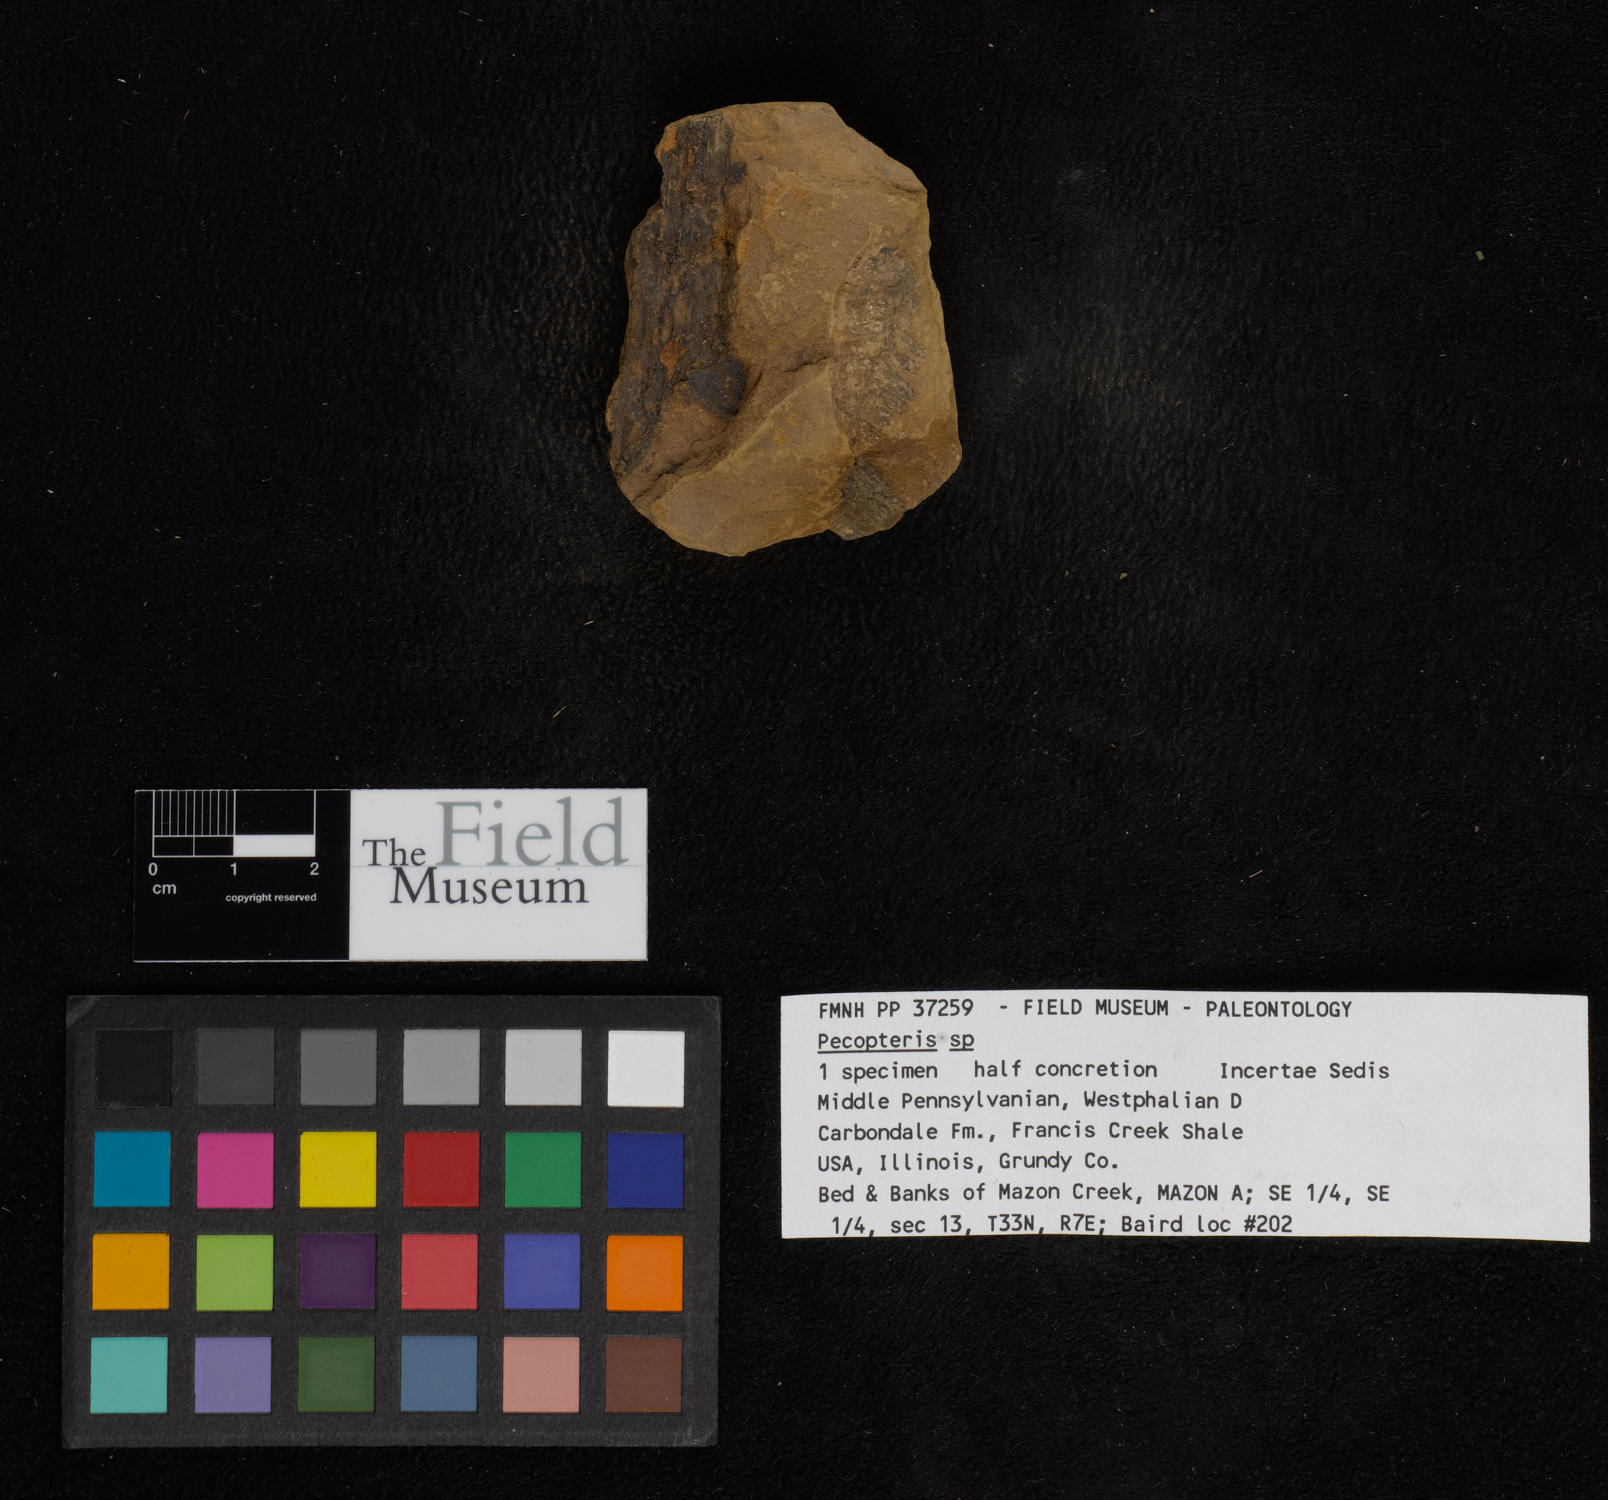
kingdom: Plantae
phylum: Tracheophyta
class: Polypodiopsida
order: Marattiales
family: Asterothecaceae
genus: Pecopteris
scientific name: Pecopteris
